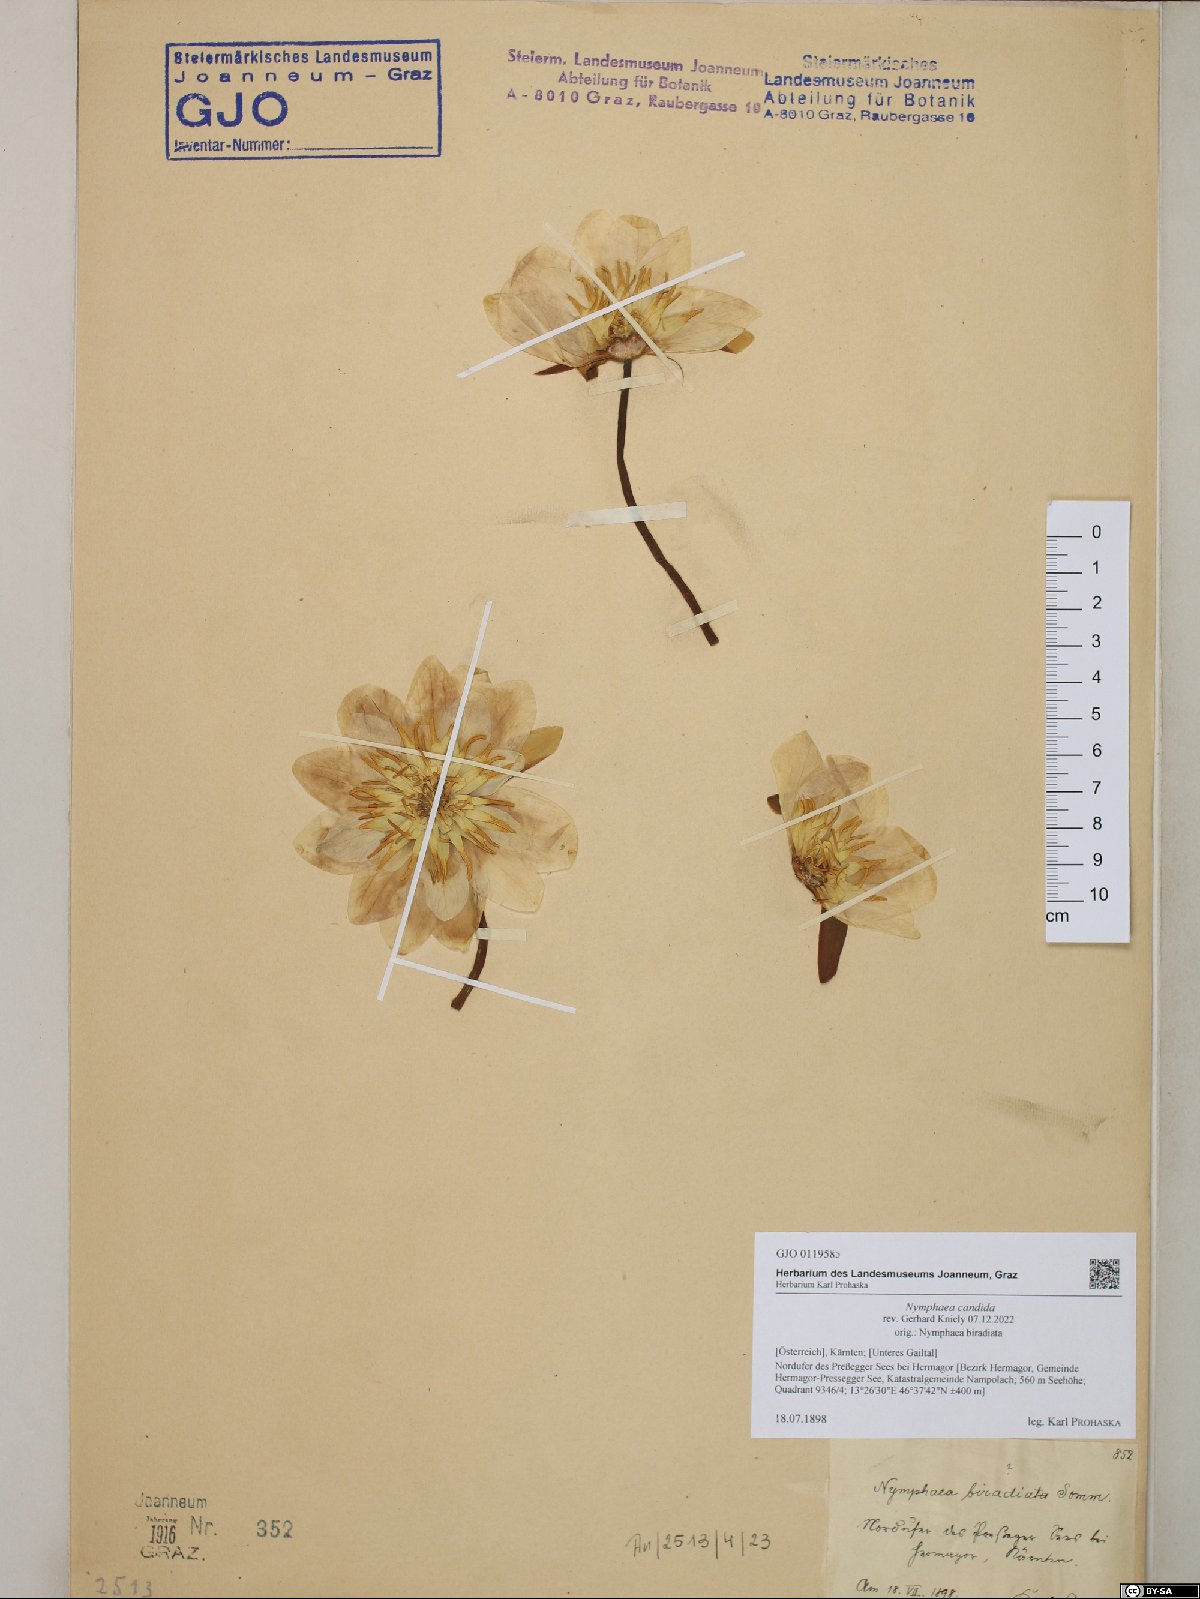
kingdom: Plantae
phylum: Tracheophyta
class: Magnoliopsida
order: Nymphaeales
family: Nymphaeaceae
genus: Nymphaea
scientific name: Nymphaea candida
